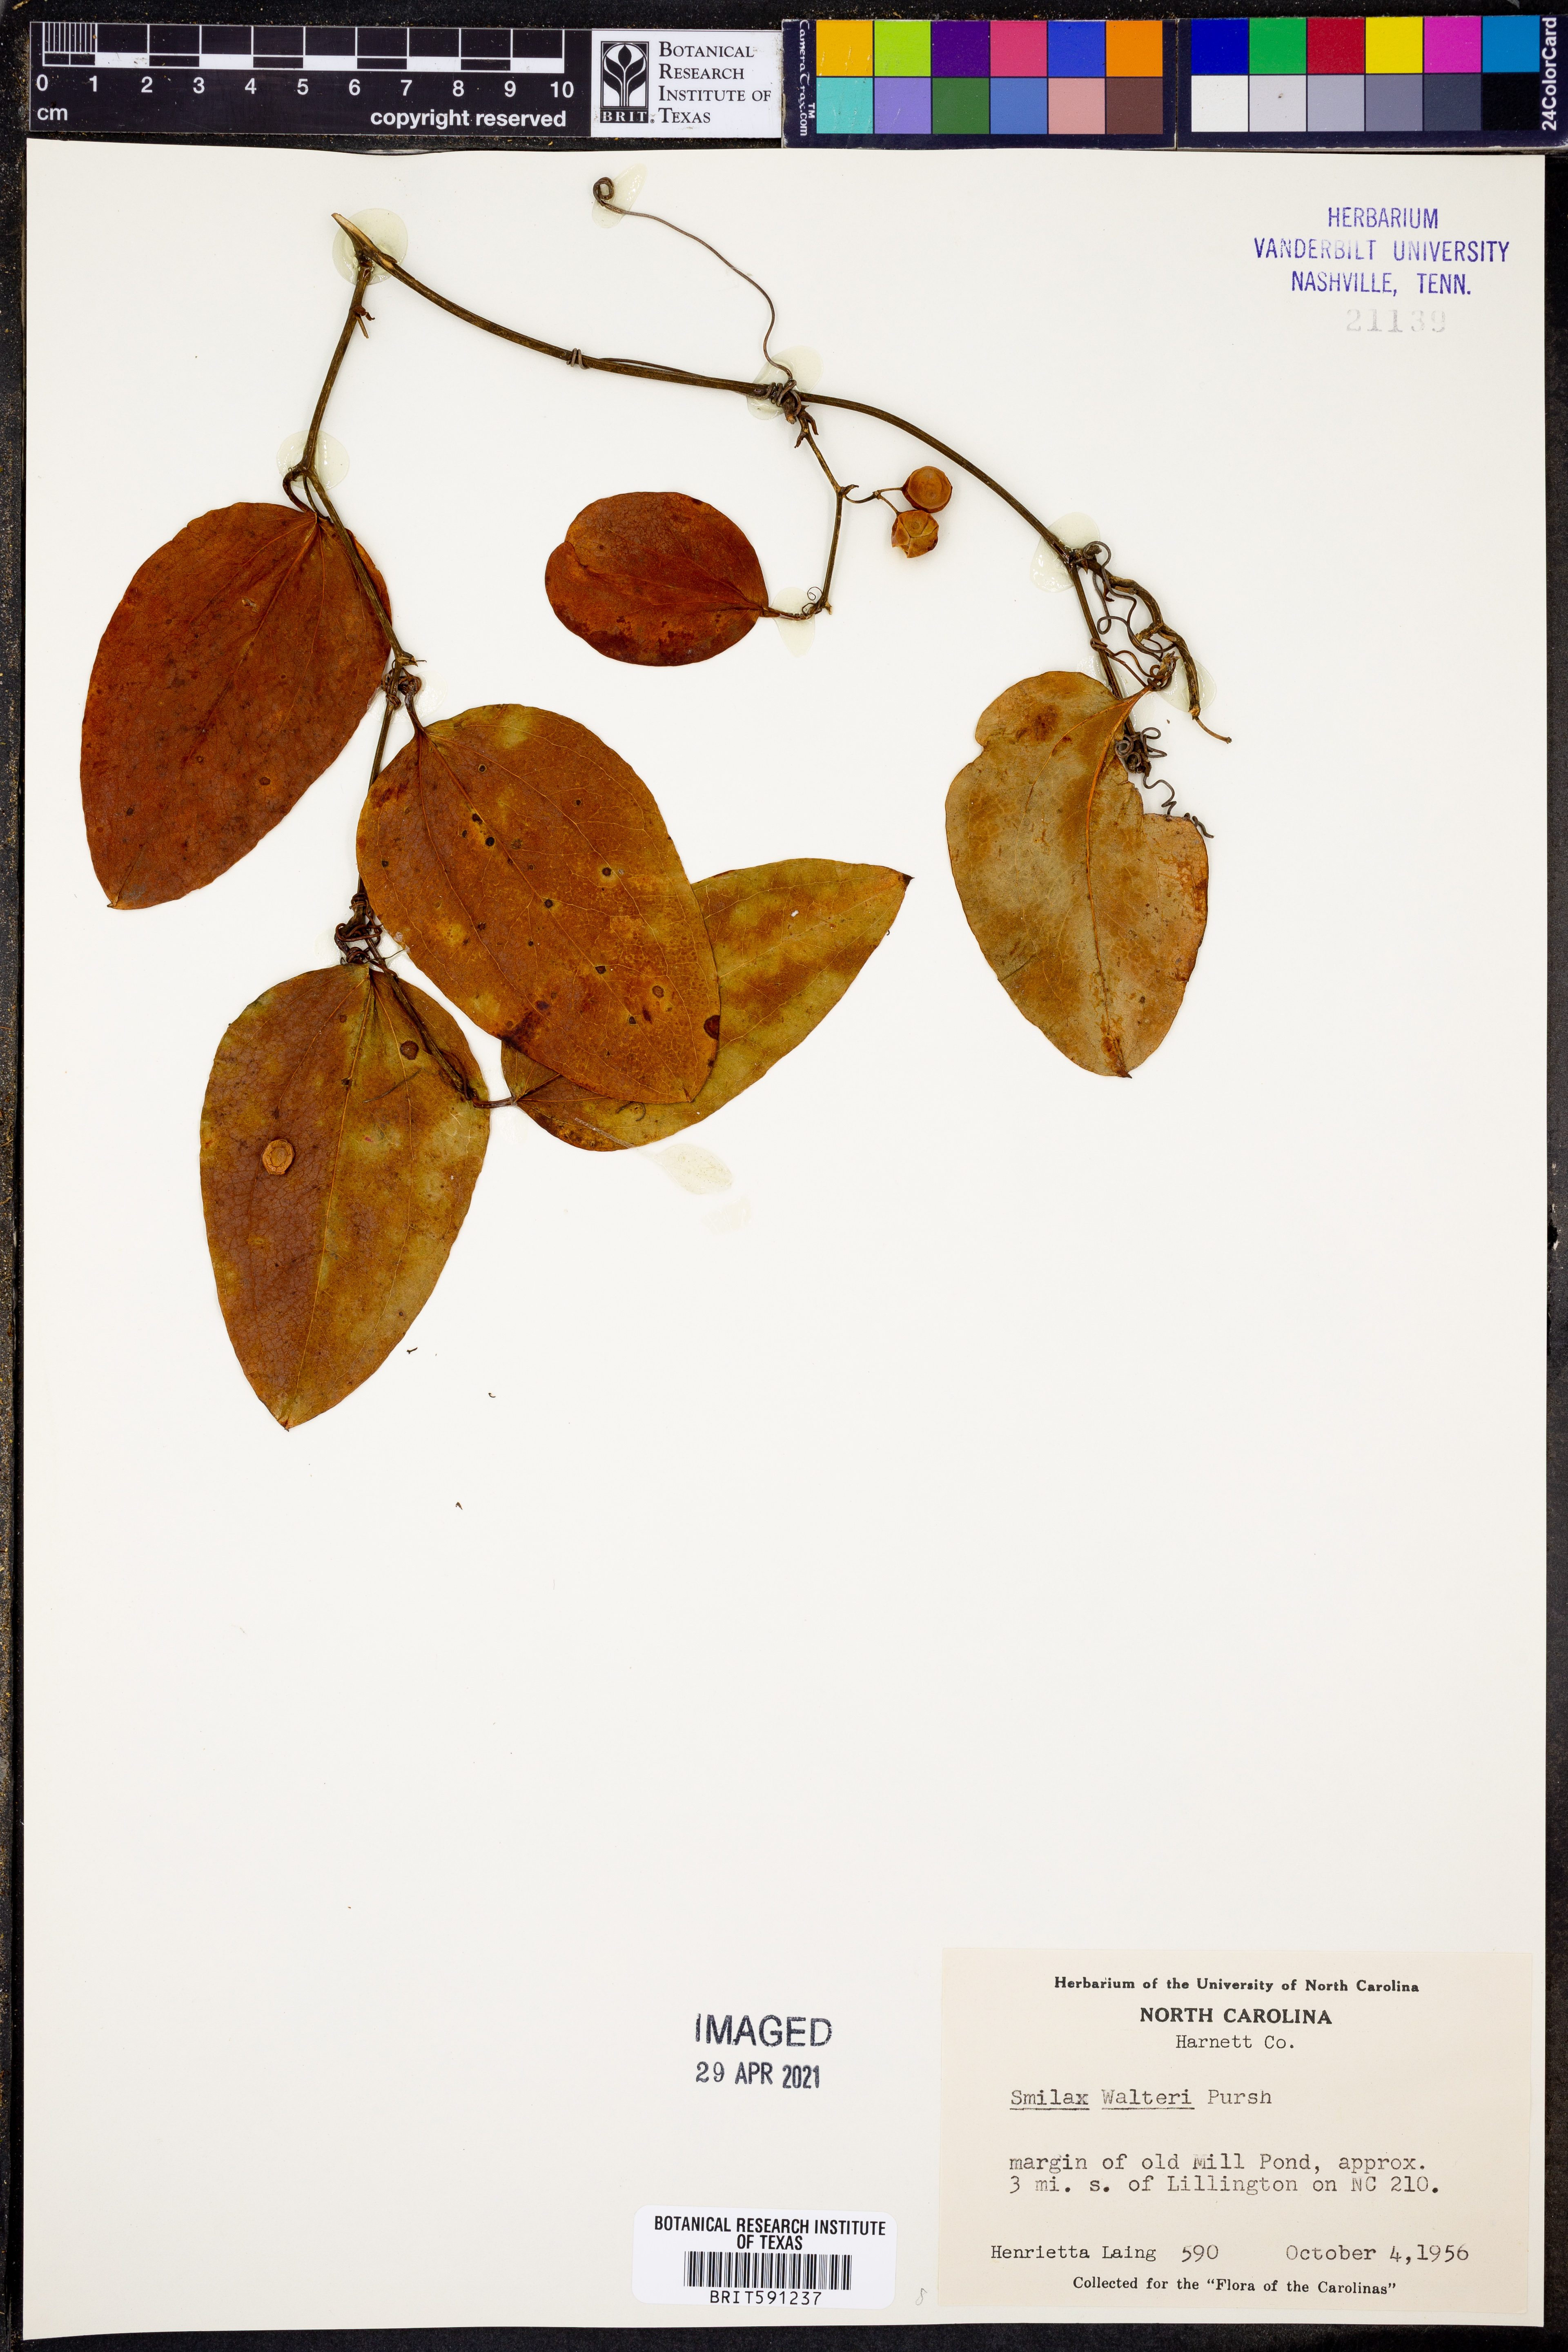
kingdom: Plantae
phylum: Tracheophyta
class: Liliopsida
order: Liliales
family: Smilacaceae
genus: Smilax
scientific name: Smilax walteri
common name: Coral greenbrier
